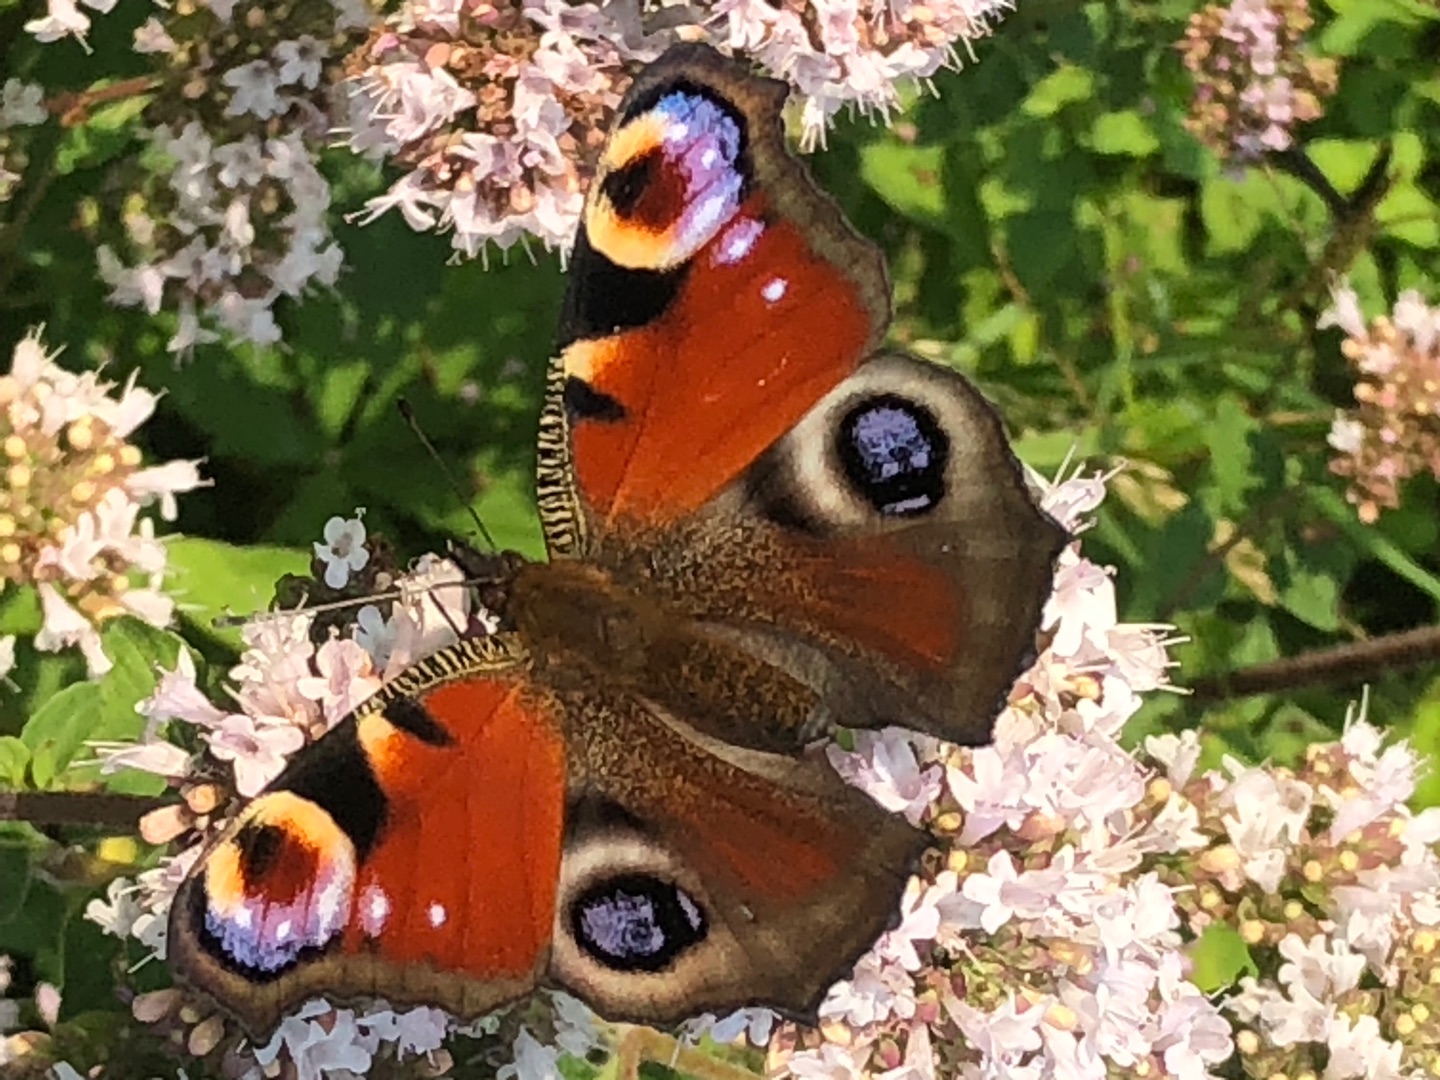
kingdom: Animalia
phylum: Arthropoda
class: Insecta
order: Lepidoptera
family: Nymphalidae
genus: Aglais
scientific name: Aglais io
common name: Dagpåfugleøje
